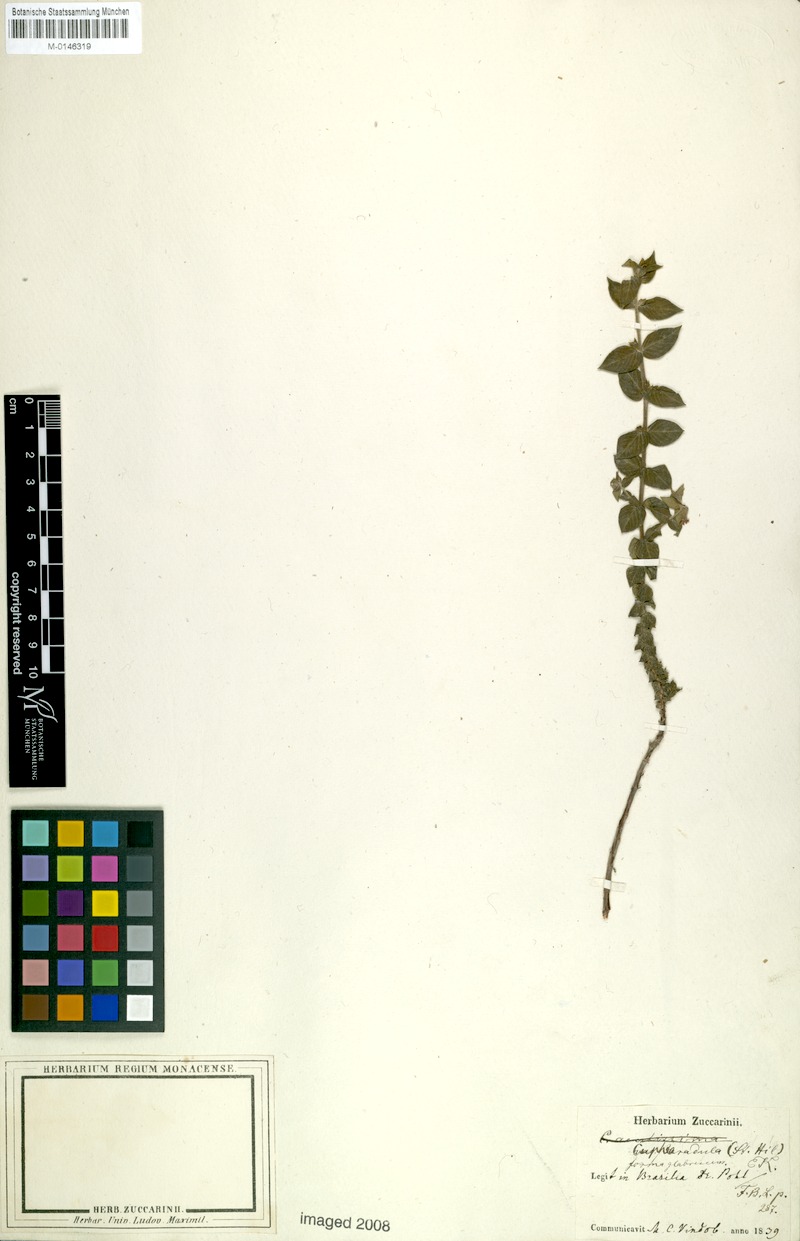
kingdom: Plantae
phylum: Tracheophyta
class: Magnoliopsida
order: Myrtales
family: Lythraceae
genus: Cuphea
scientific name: Cuphea antisyphilitica
